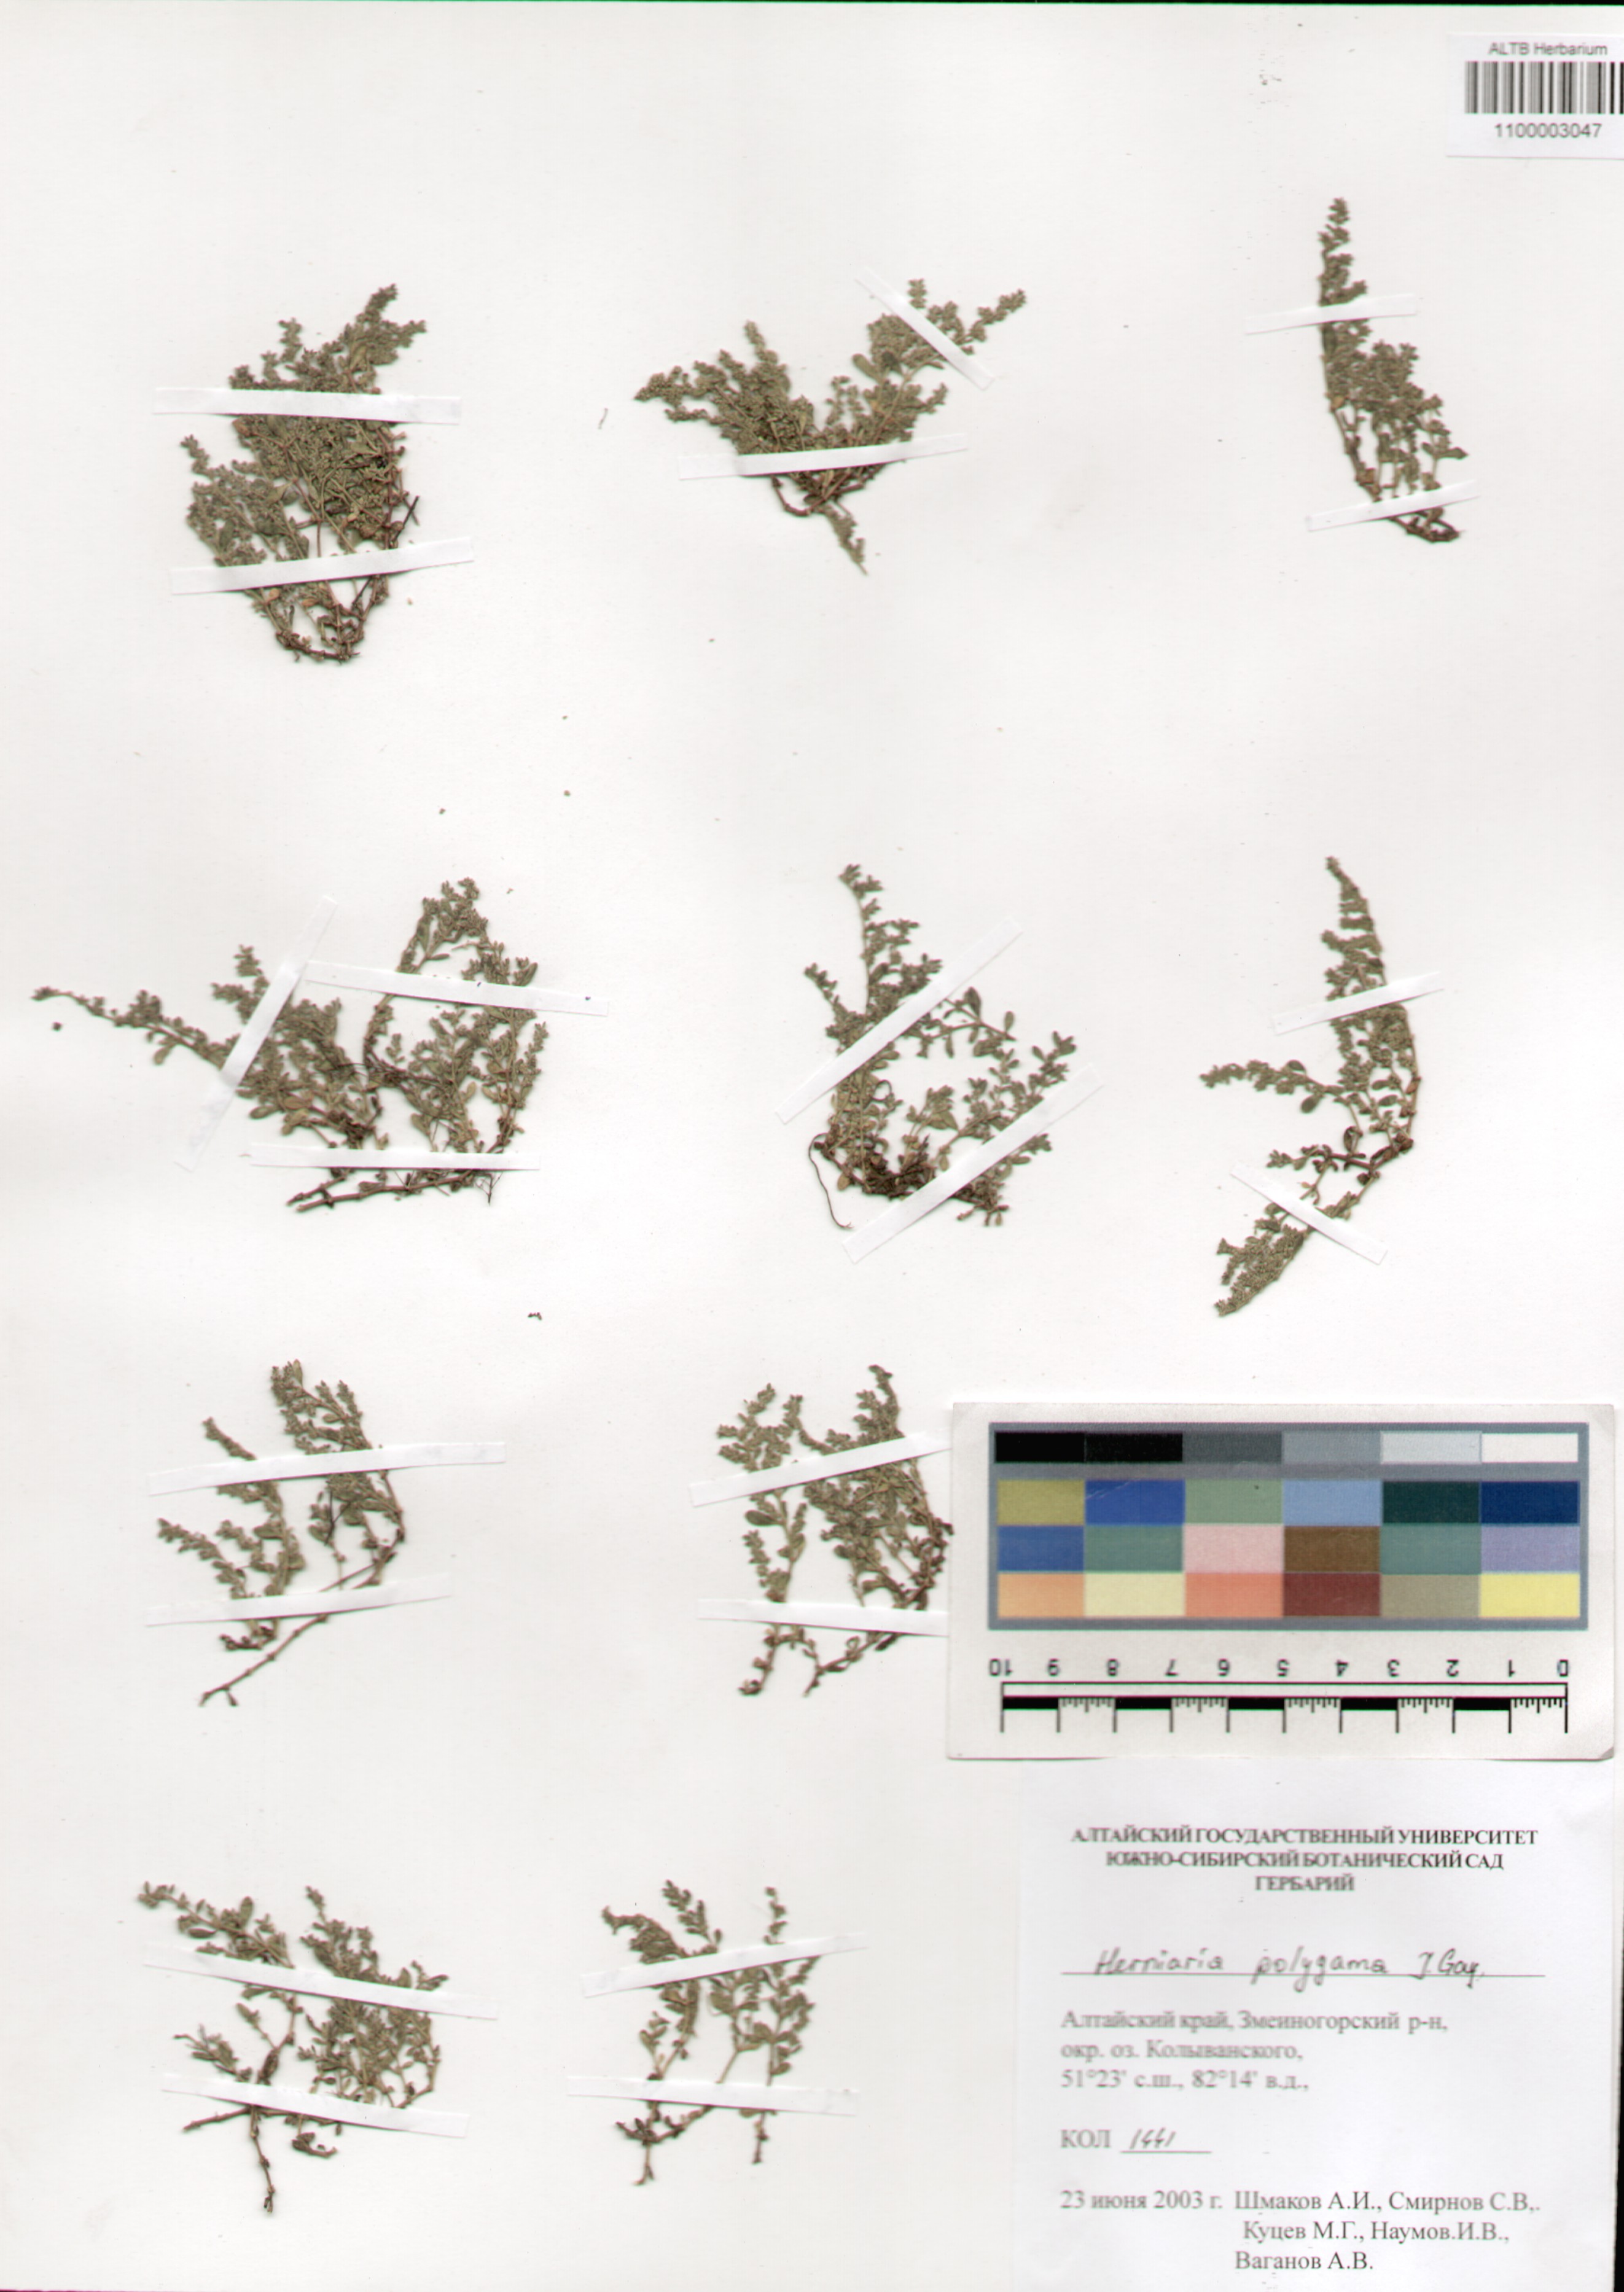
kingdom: Plantae
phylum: Tracheophyta
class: Magnoliopsida
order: Caryophyllales
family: Caryophyllaceae
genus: Herniaria
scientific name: Herniaria polygama
